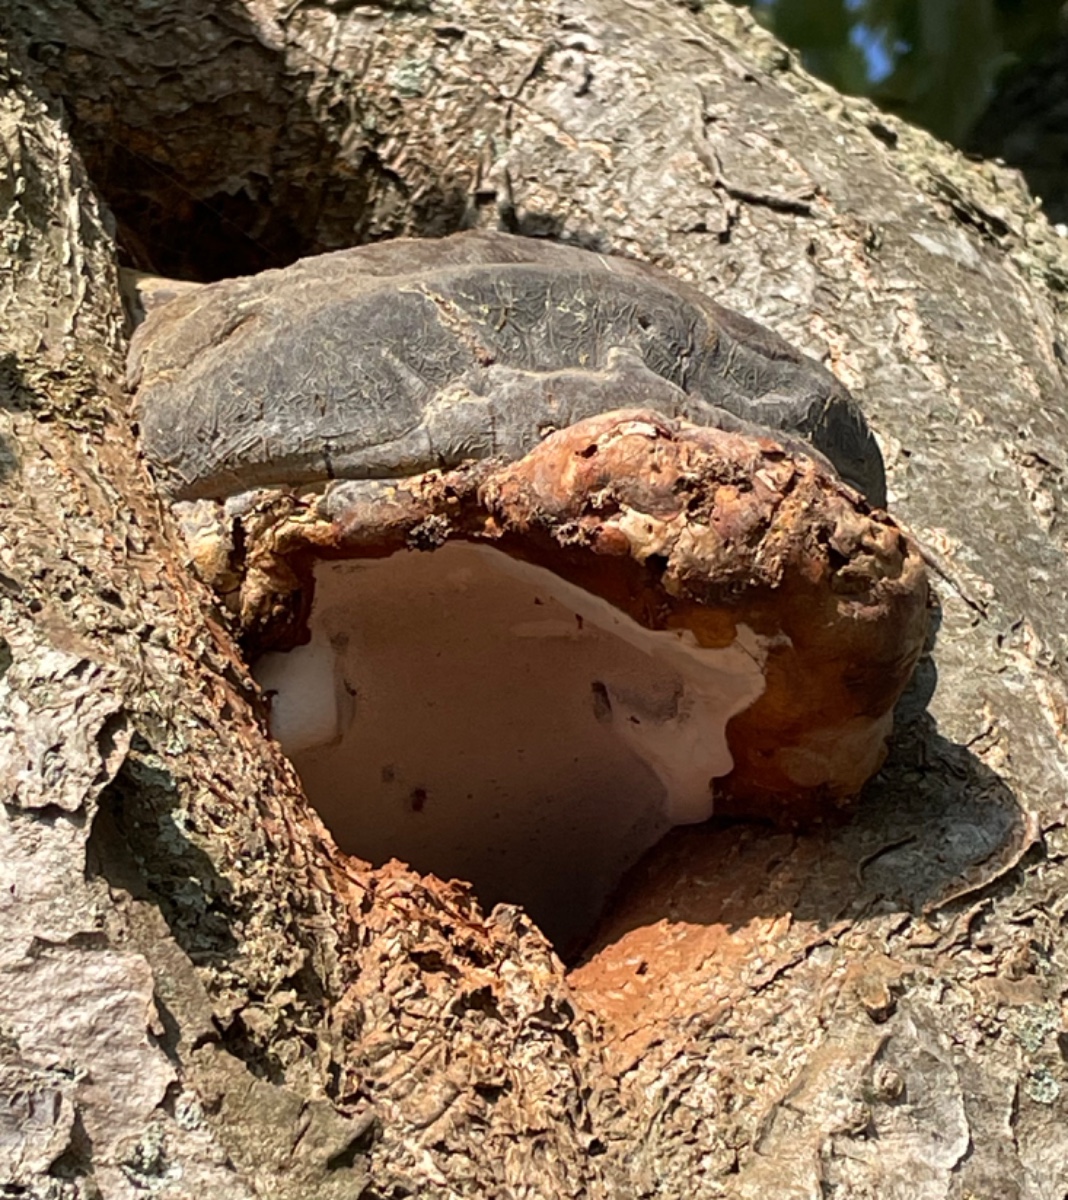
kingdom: Fungi
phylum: Basidiomycota
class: Agaricomycetes
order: Polyporales
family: Polyporaceae
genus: Ganoderma
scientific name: Ganoderma adspersum
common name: grov lakporesvamp
